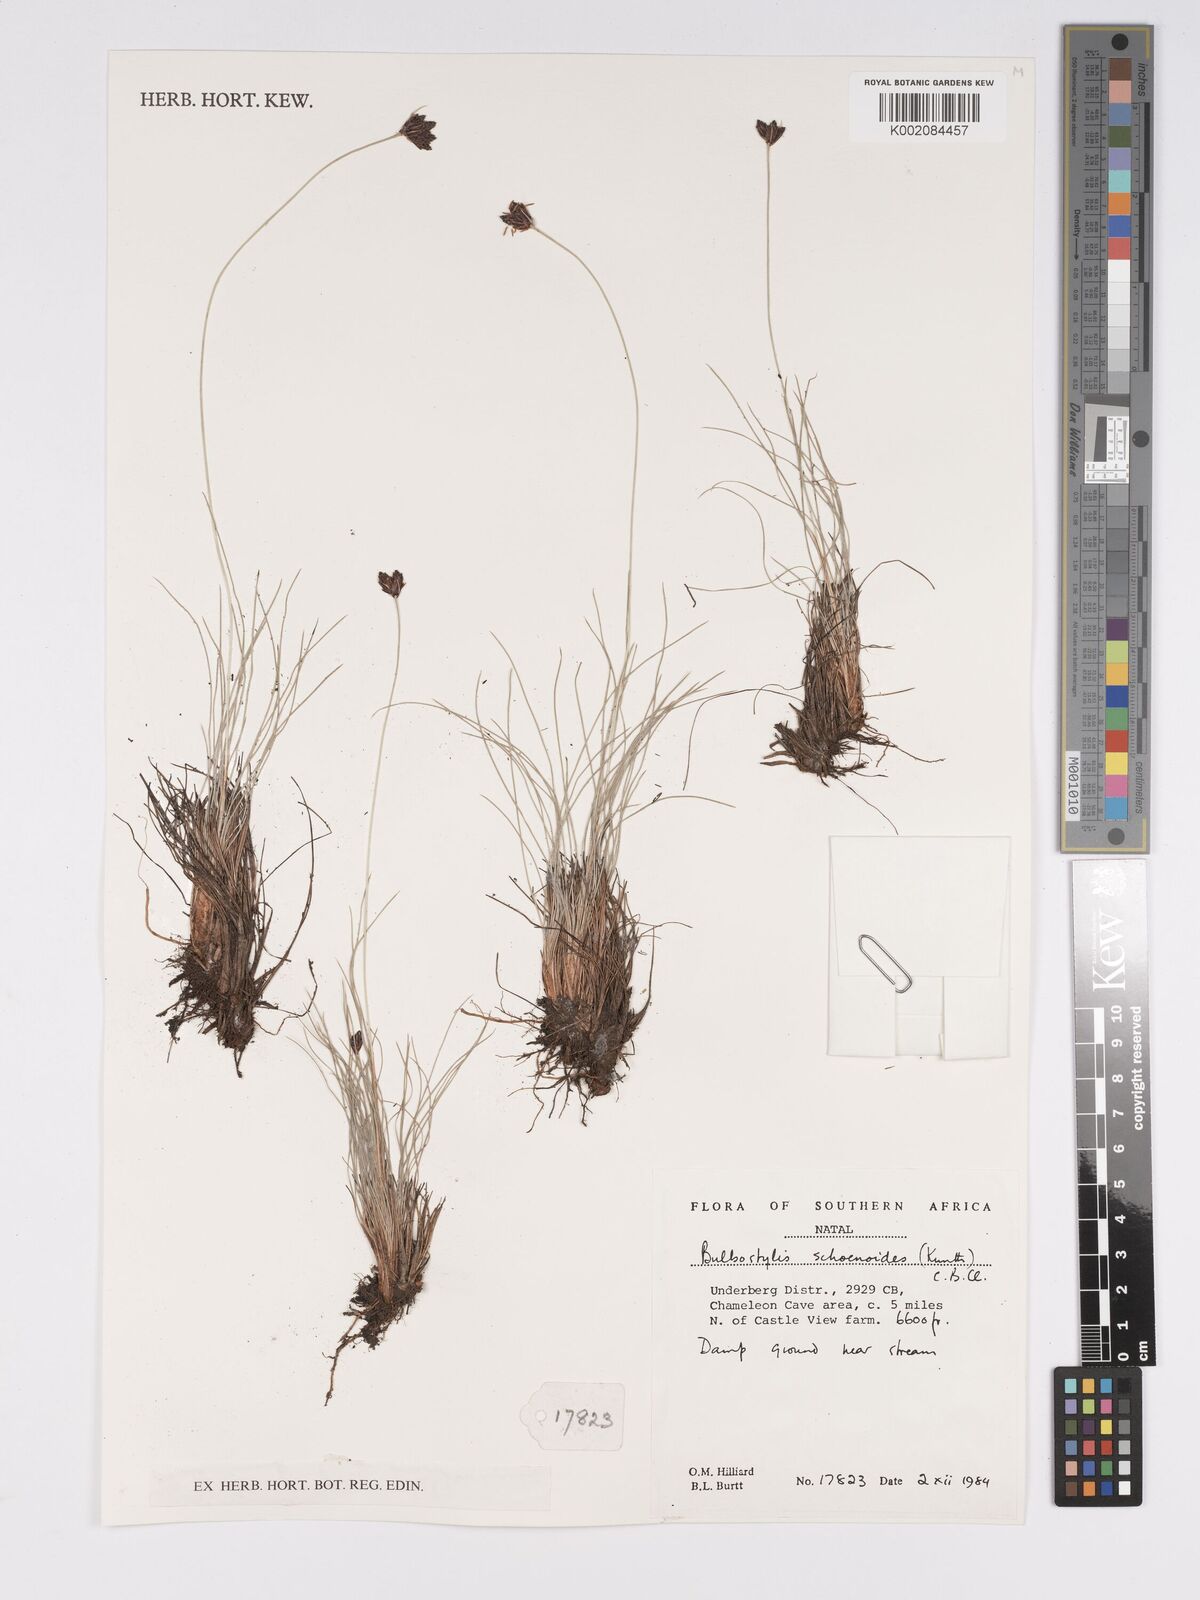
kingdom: Plantae
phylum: Tracheophyta
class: Liliopsida
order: Poales
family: Cyperaceae
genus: Bulbostylis
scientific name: Bulbostylis schoenoides
